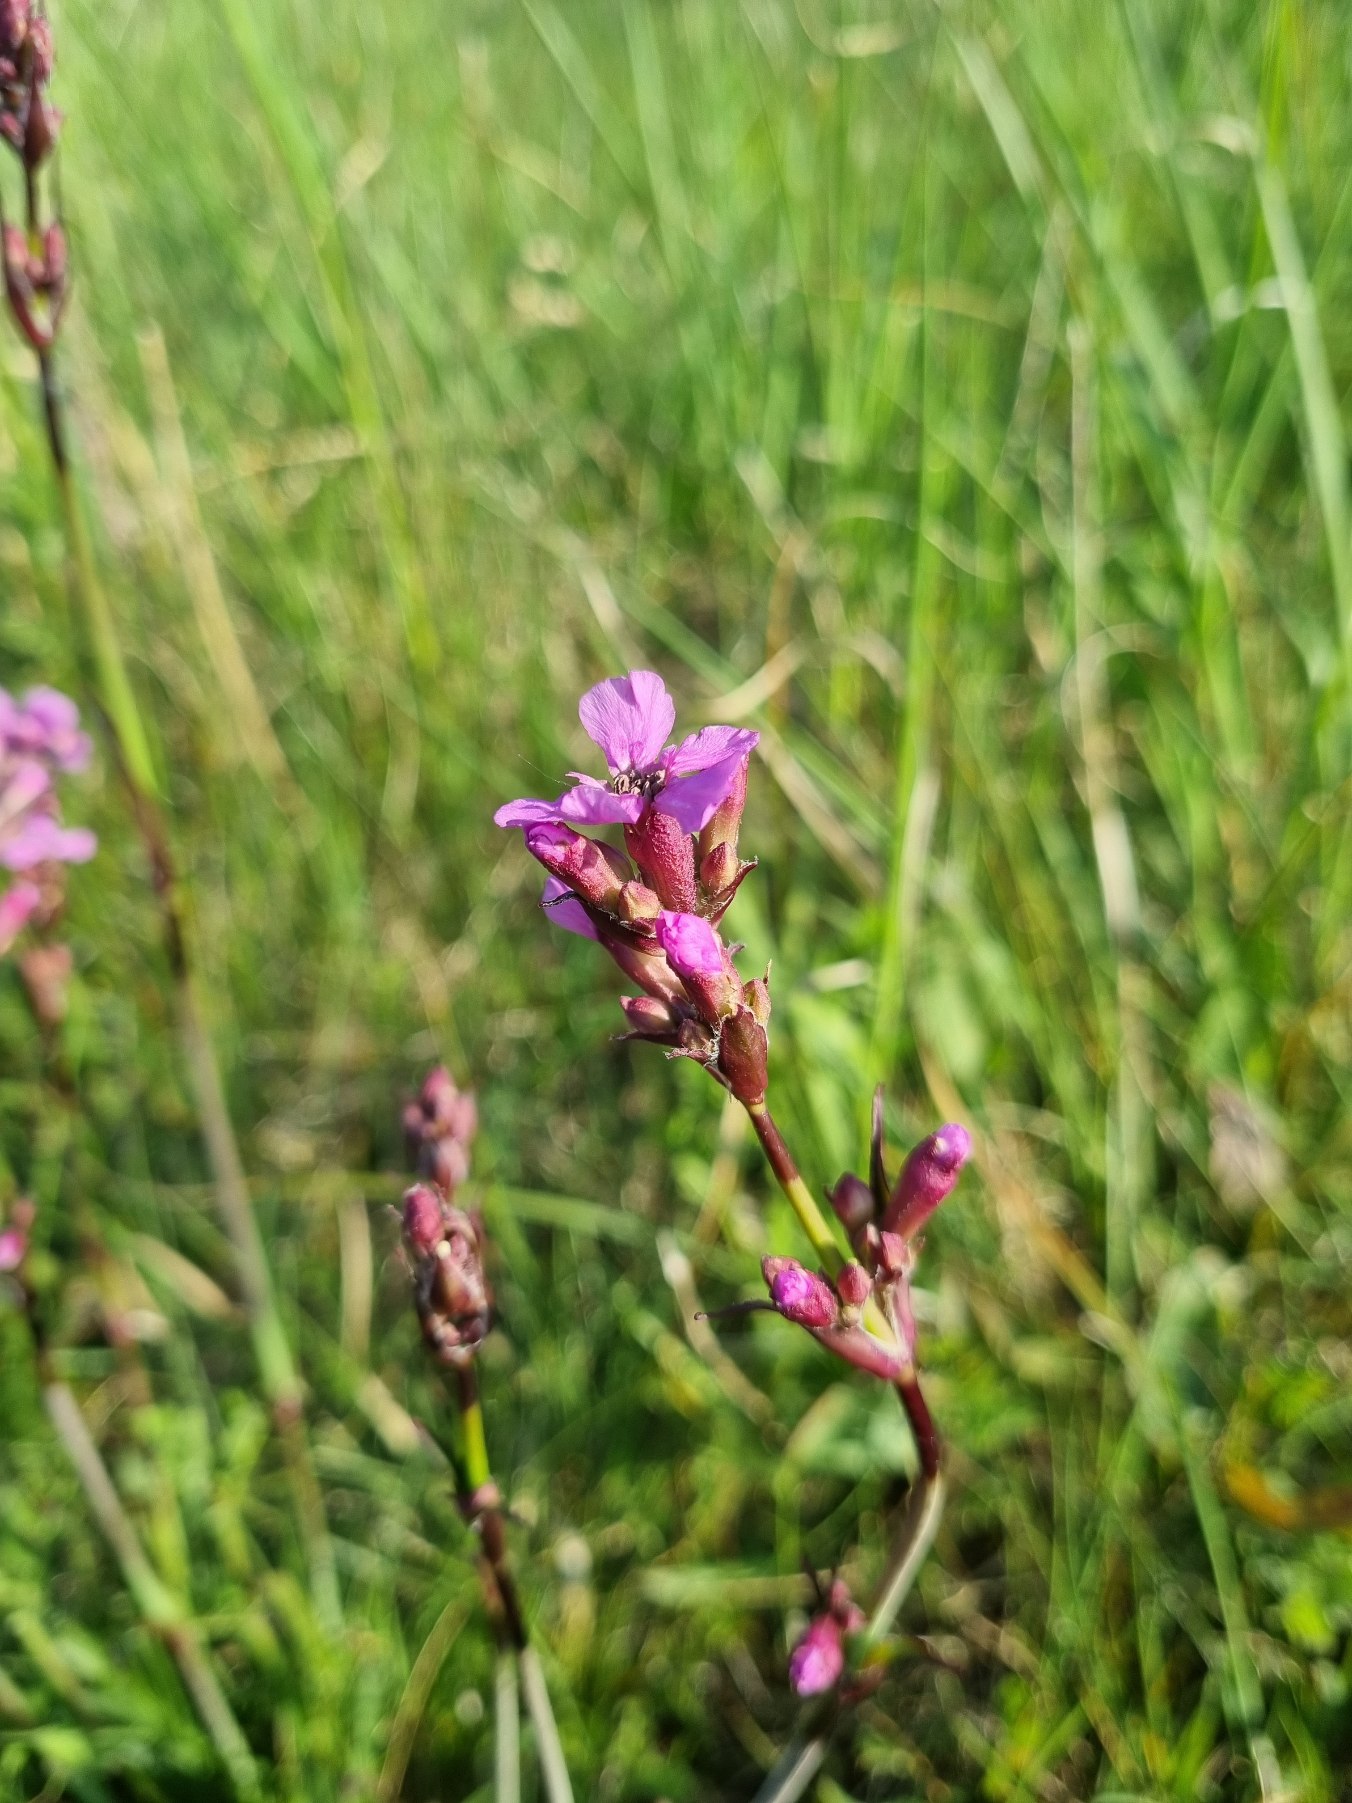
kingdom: Plantae
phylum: Tracheophyta
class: Magnoliopsida
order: Caryophyllales
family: Caryophyllaceae
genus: Viscaria
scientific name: Viscaria vulgaris
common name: Tjærenellike
